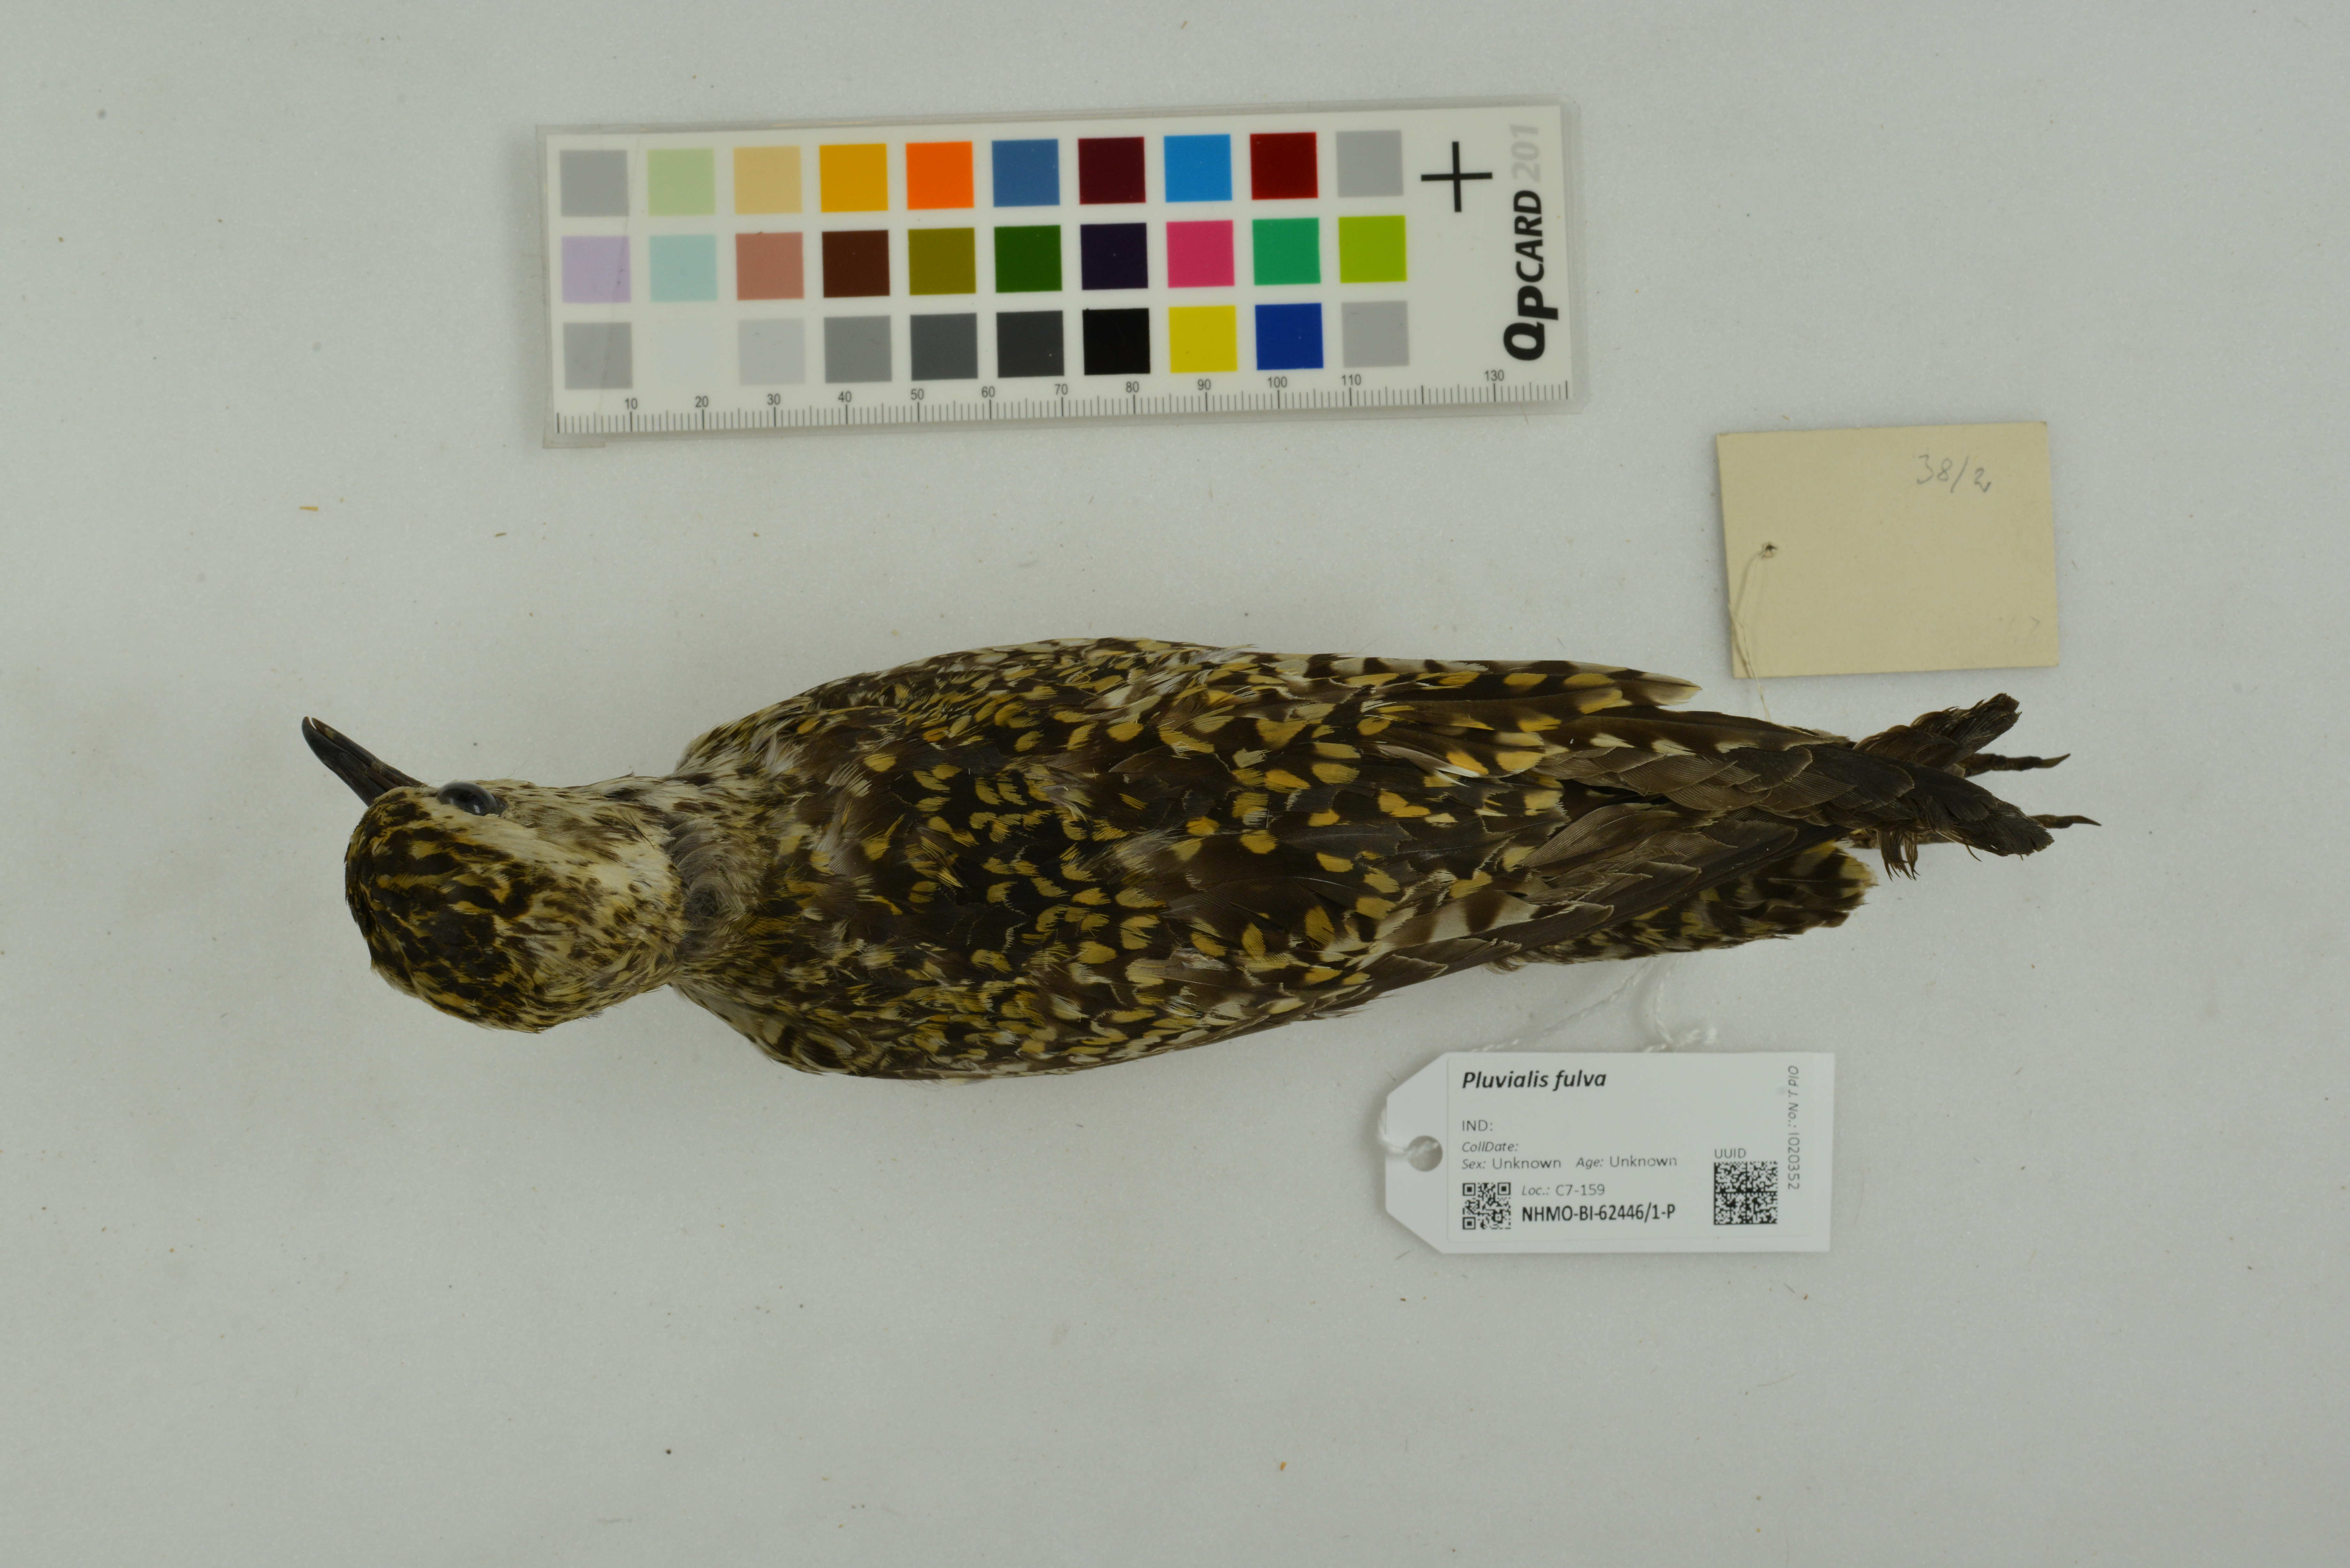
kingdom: Animalia
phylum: Chordata
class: Aves
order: Charadriiformes
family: Charadriidae
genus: Pluvialis
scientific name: Pluvialis fulva
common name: Pacific golden plover
